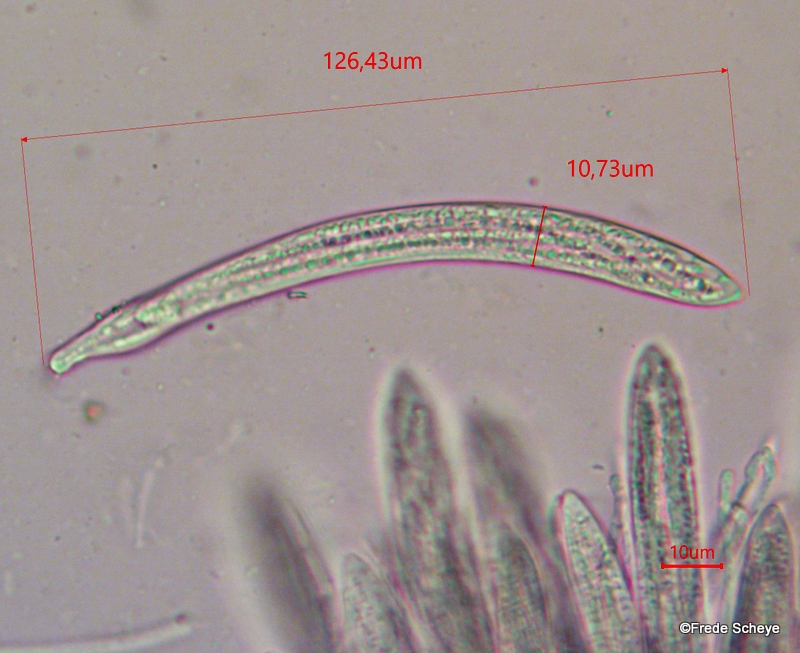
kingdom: Fungi
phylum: Ascomycota
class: Leotiomycetes
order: Rhytismatales
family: Rhytismataceae
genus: Lophodermium
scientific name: Lophodermium piceae
